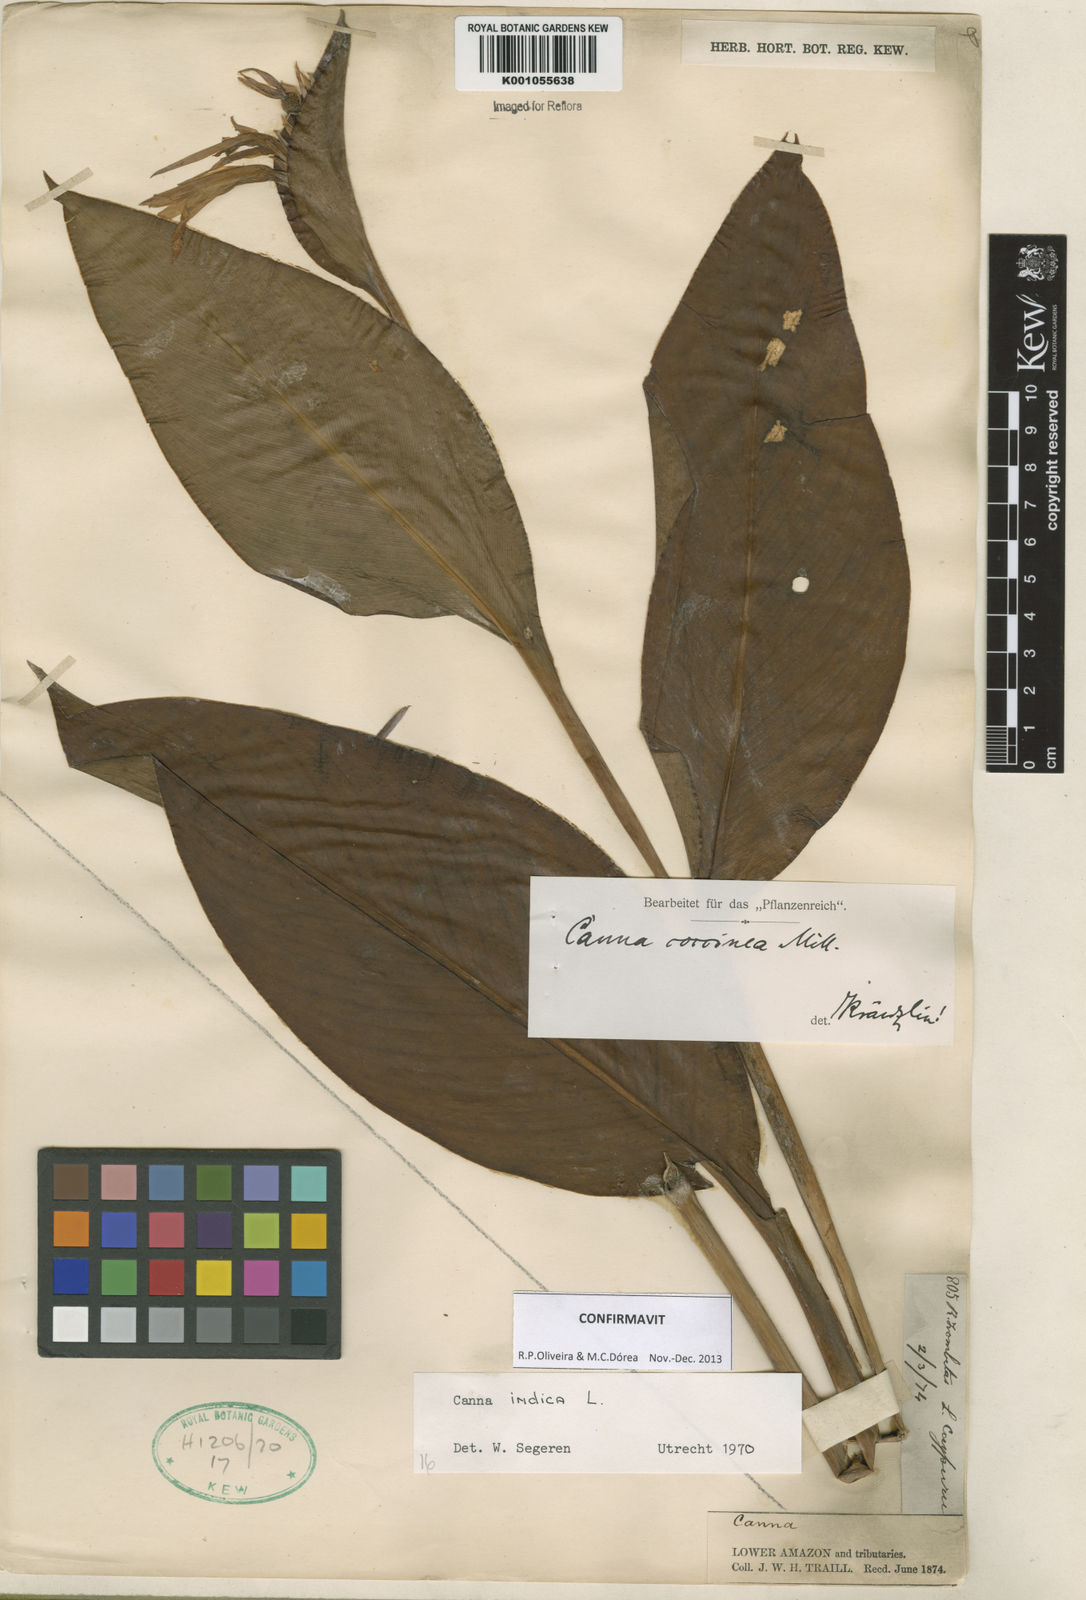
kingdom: Plantae
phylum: Tracheophyta
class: Liliopsida
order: Zingiberales
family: Cannaceae
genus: Canna
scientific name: Canna indica
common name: Indian shot
